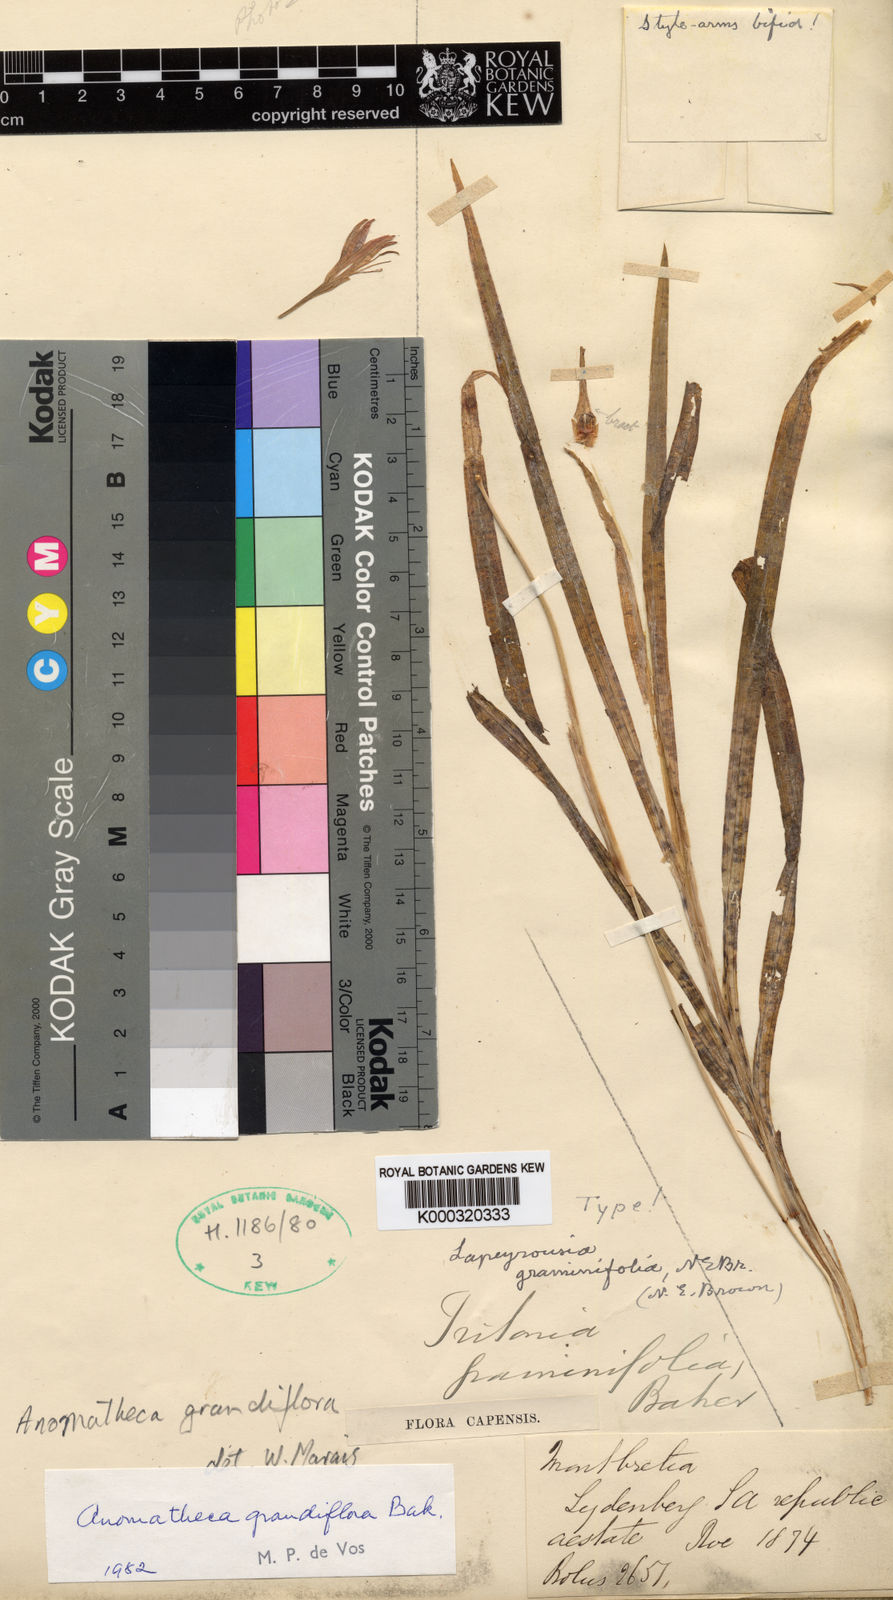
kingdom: Plantae
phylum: Tracheophyta
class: Liliopsida
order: Asparagales
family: Iridaceae
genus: Freesia
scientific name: Freesia grandiflora
